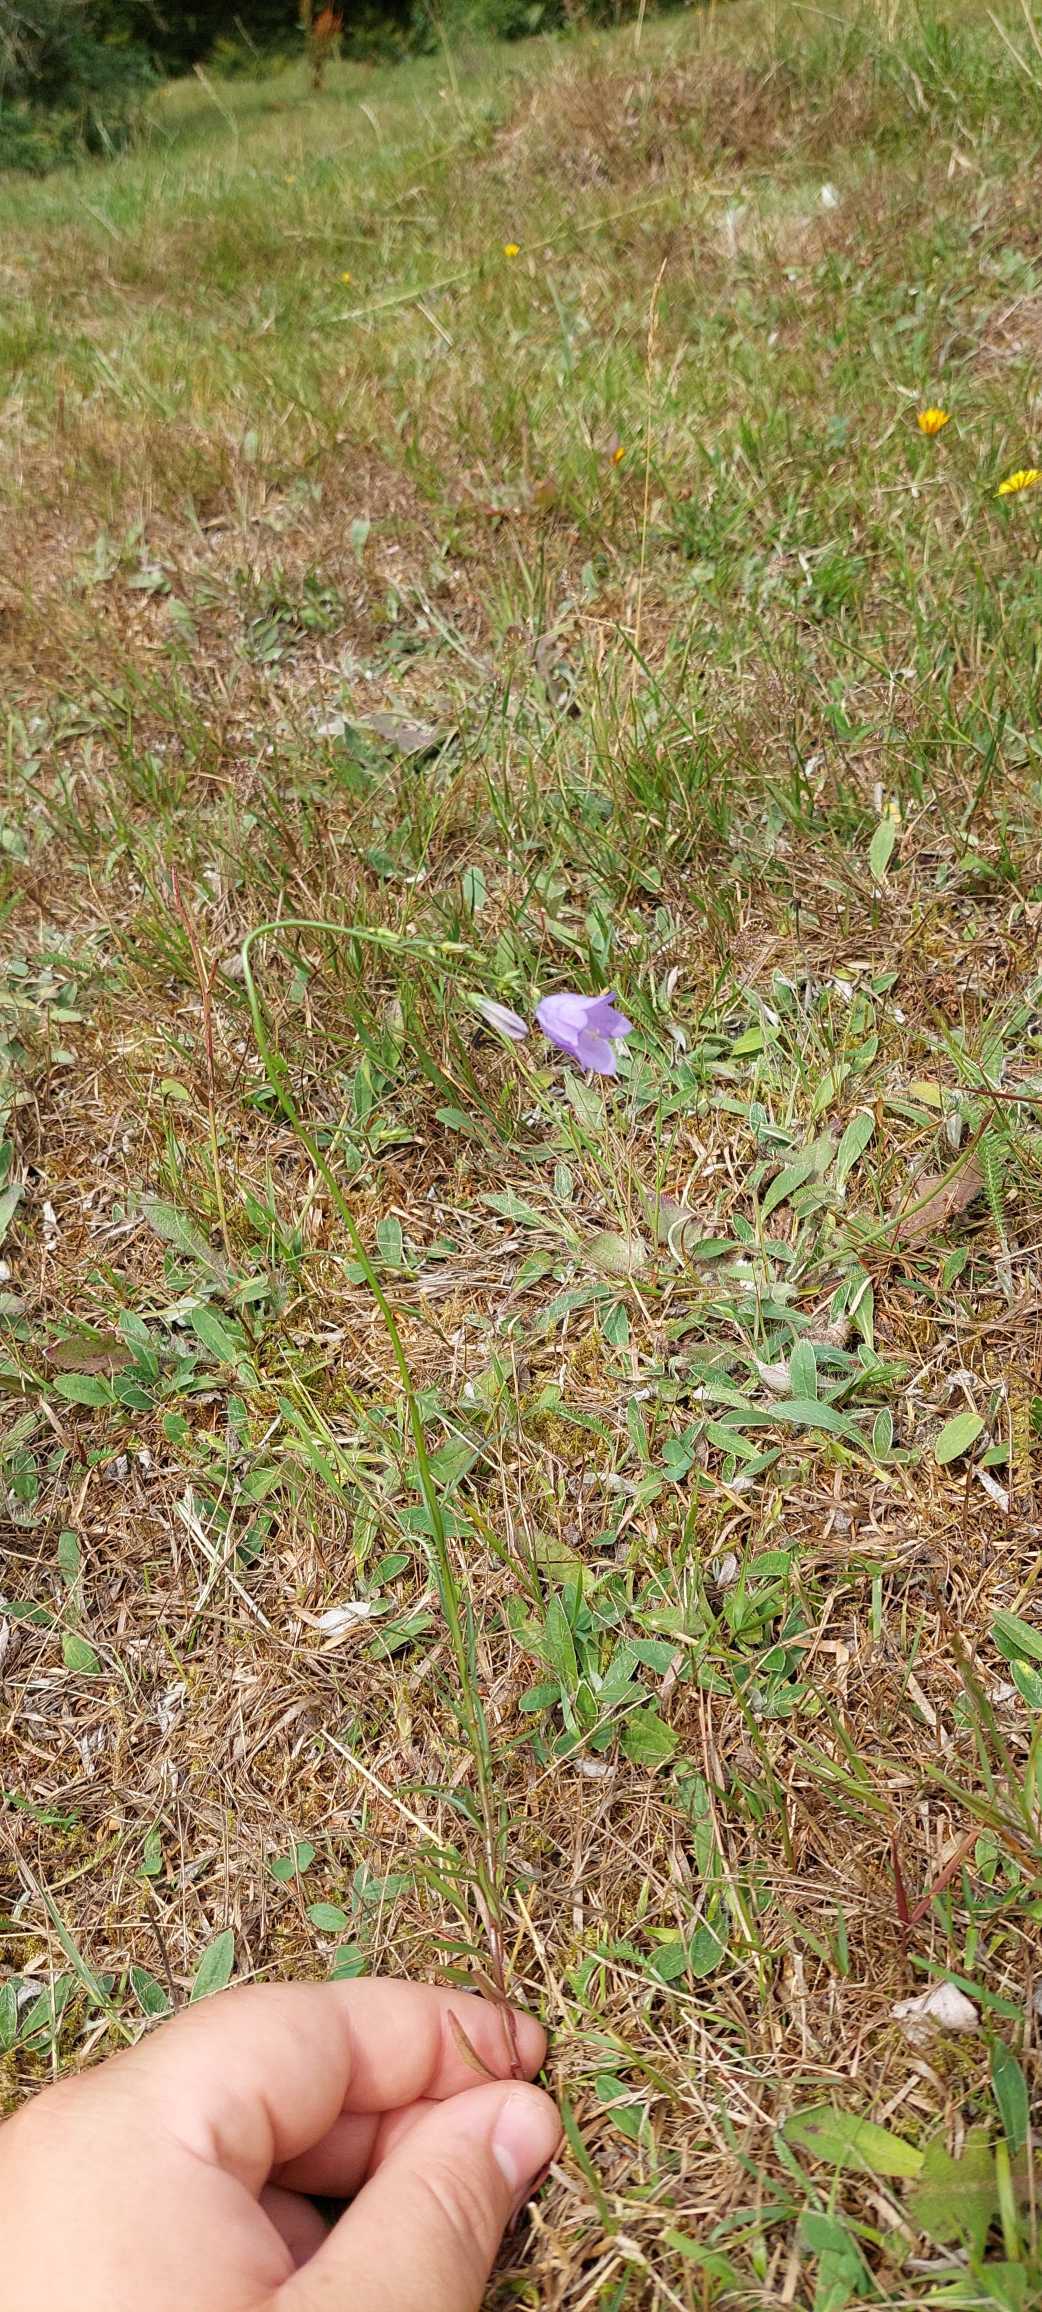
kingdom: Plantae
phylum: Tracheophyta
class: Magnoliopsida
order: Asterales
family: Campanulaceae
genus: Campanula
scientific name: Campanula rotundifolia
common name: Liden klokke
